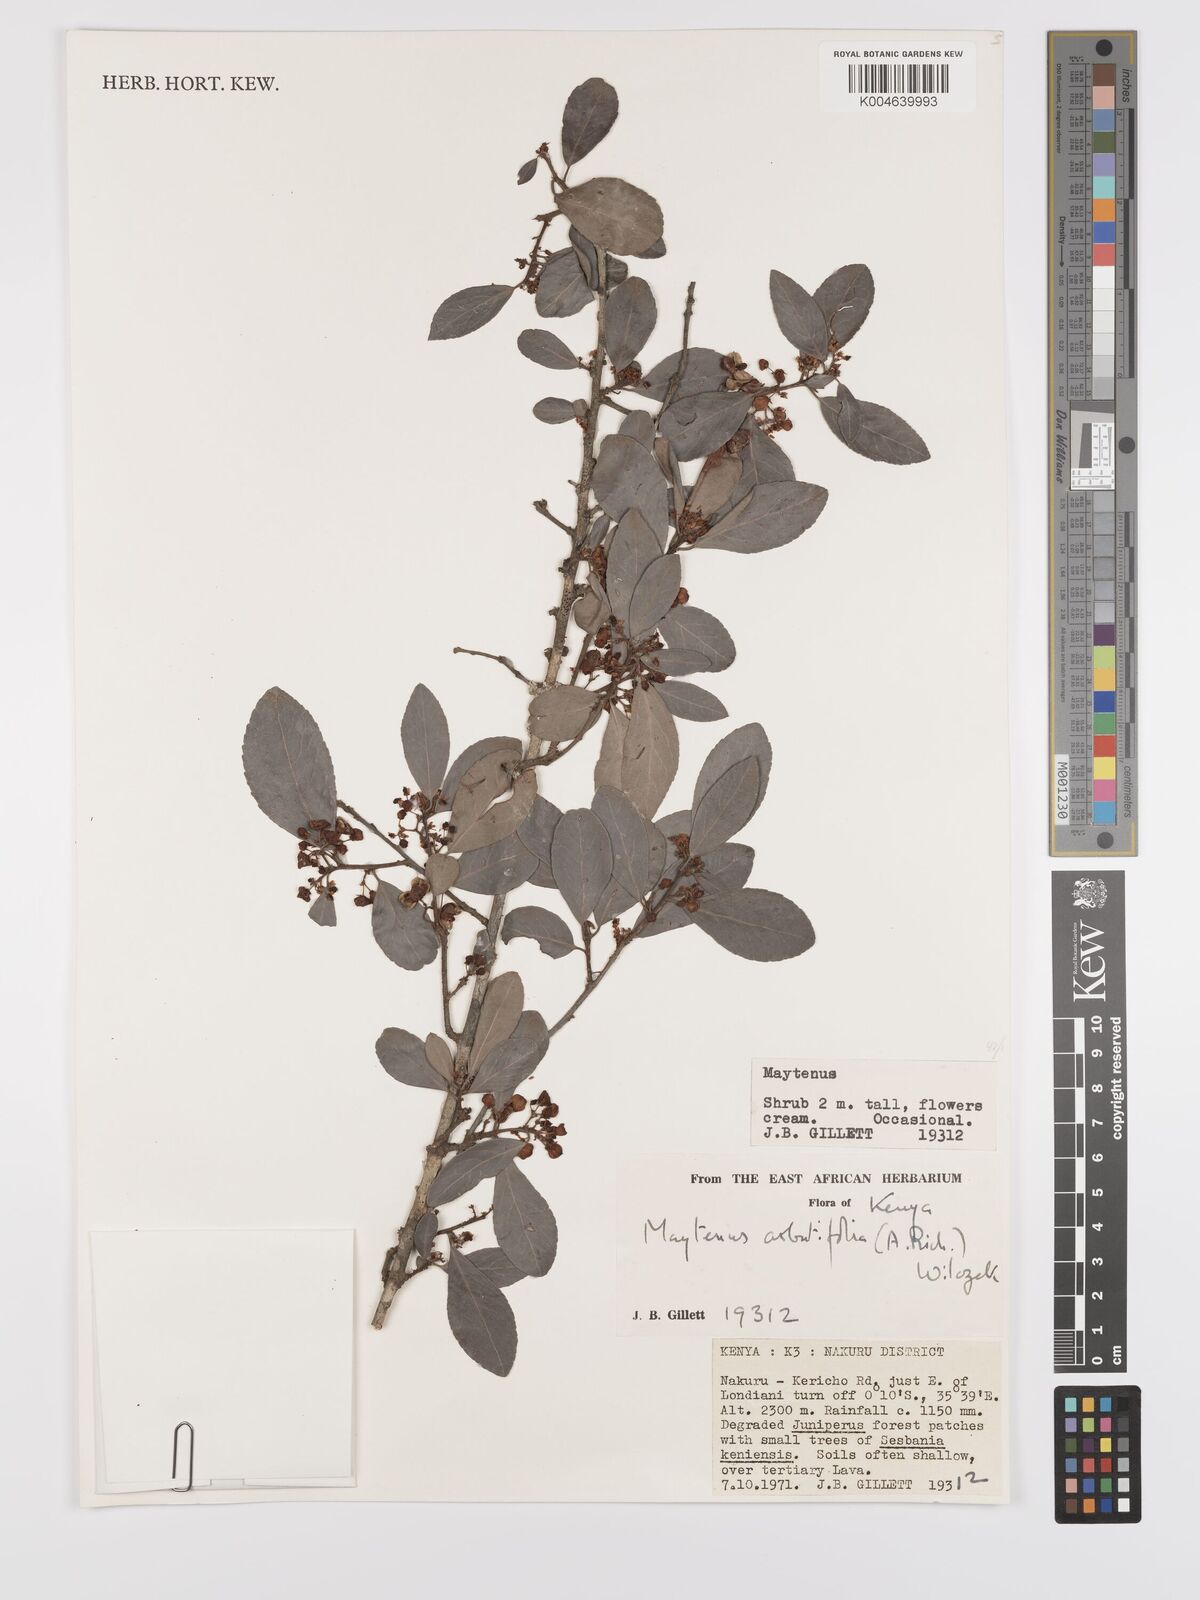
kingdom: Plantae
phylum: Tracheophyta
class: Magnoliopsida
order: Celastrales
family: Celastraceae
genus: Gymnosporia
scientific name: Gymnosporia arbutifolia
